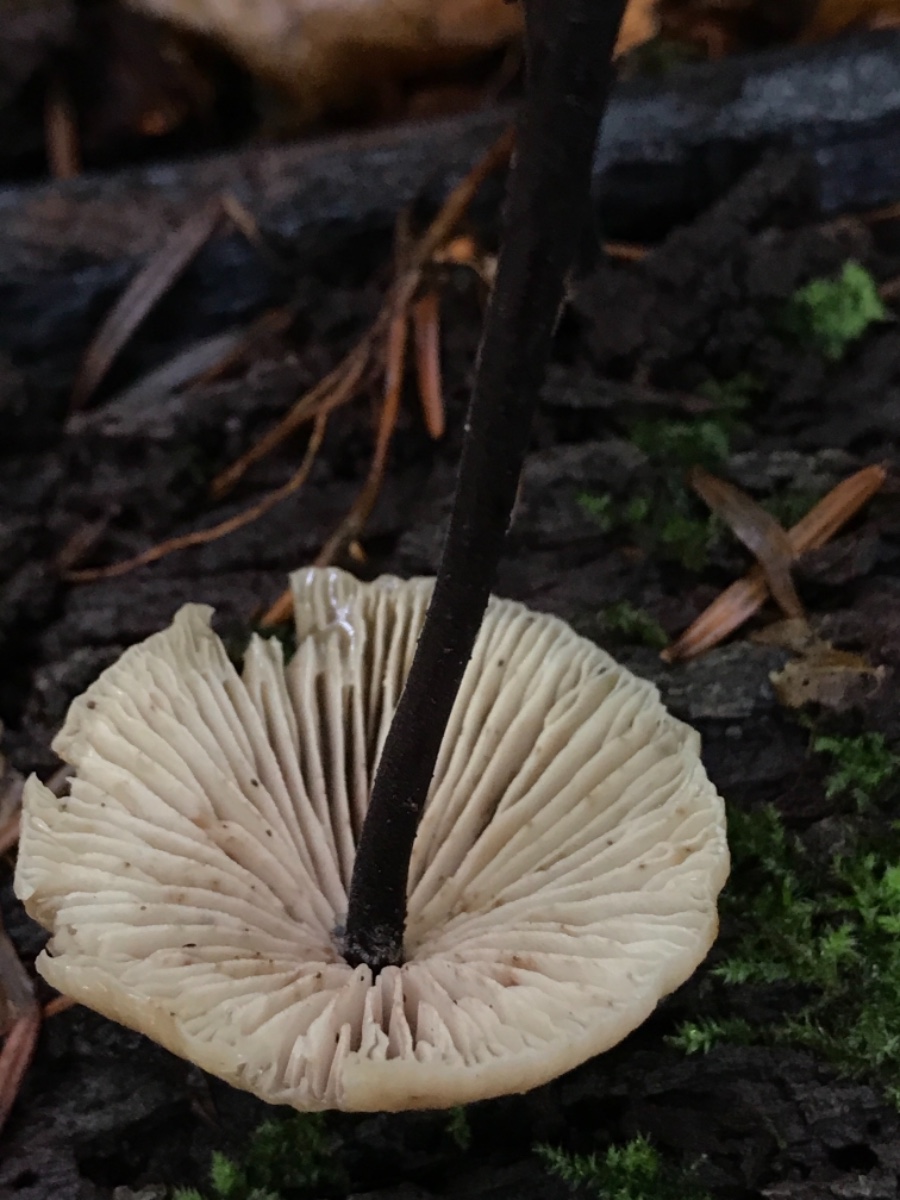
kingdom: Fungi
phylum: Basidiomycota
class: Agaricomycetes
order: Agaricales
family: Omphalotaceae
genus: Mycetinis
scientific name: Mycetinis alliaceus
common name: stor løghat
